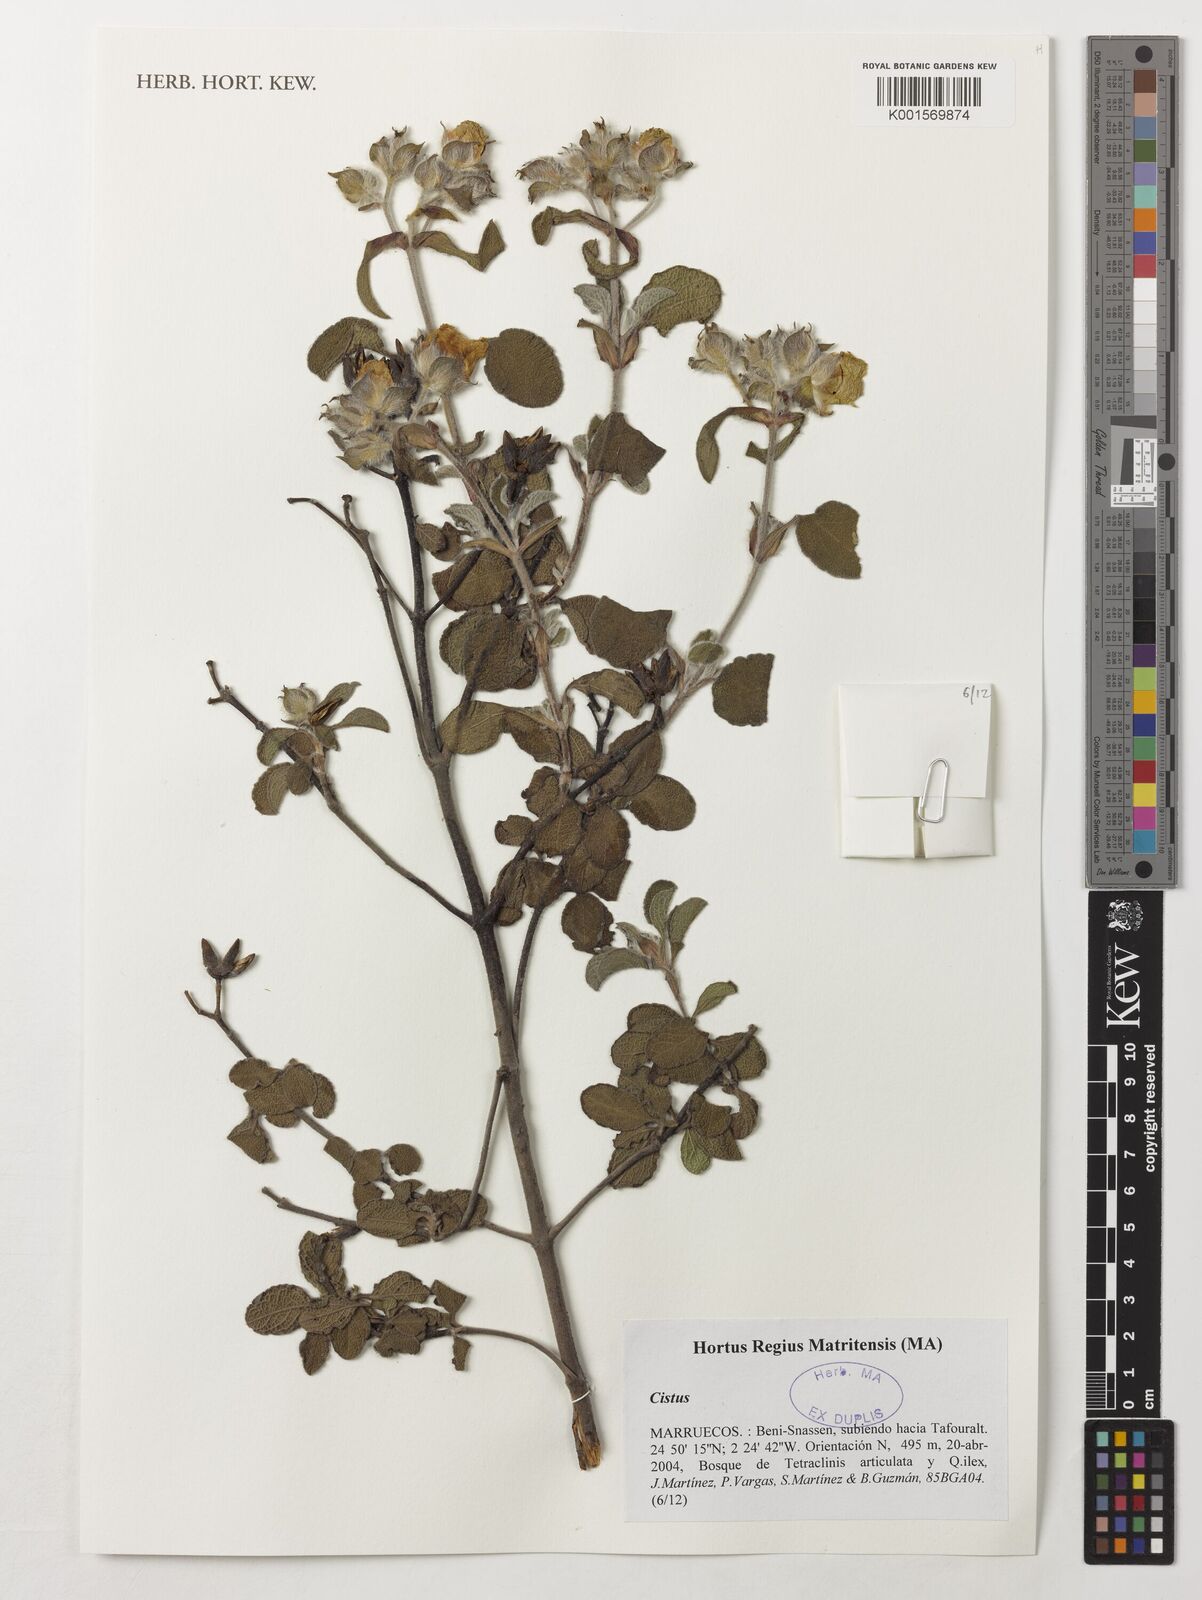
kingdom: Plantae
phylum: Tracheophyta
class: Magnoliopsida
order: Malvales
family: Cistaceae
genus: Cistus
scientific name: Cistus
